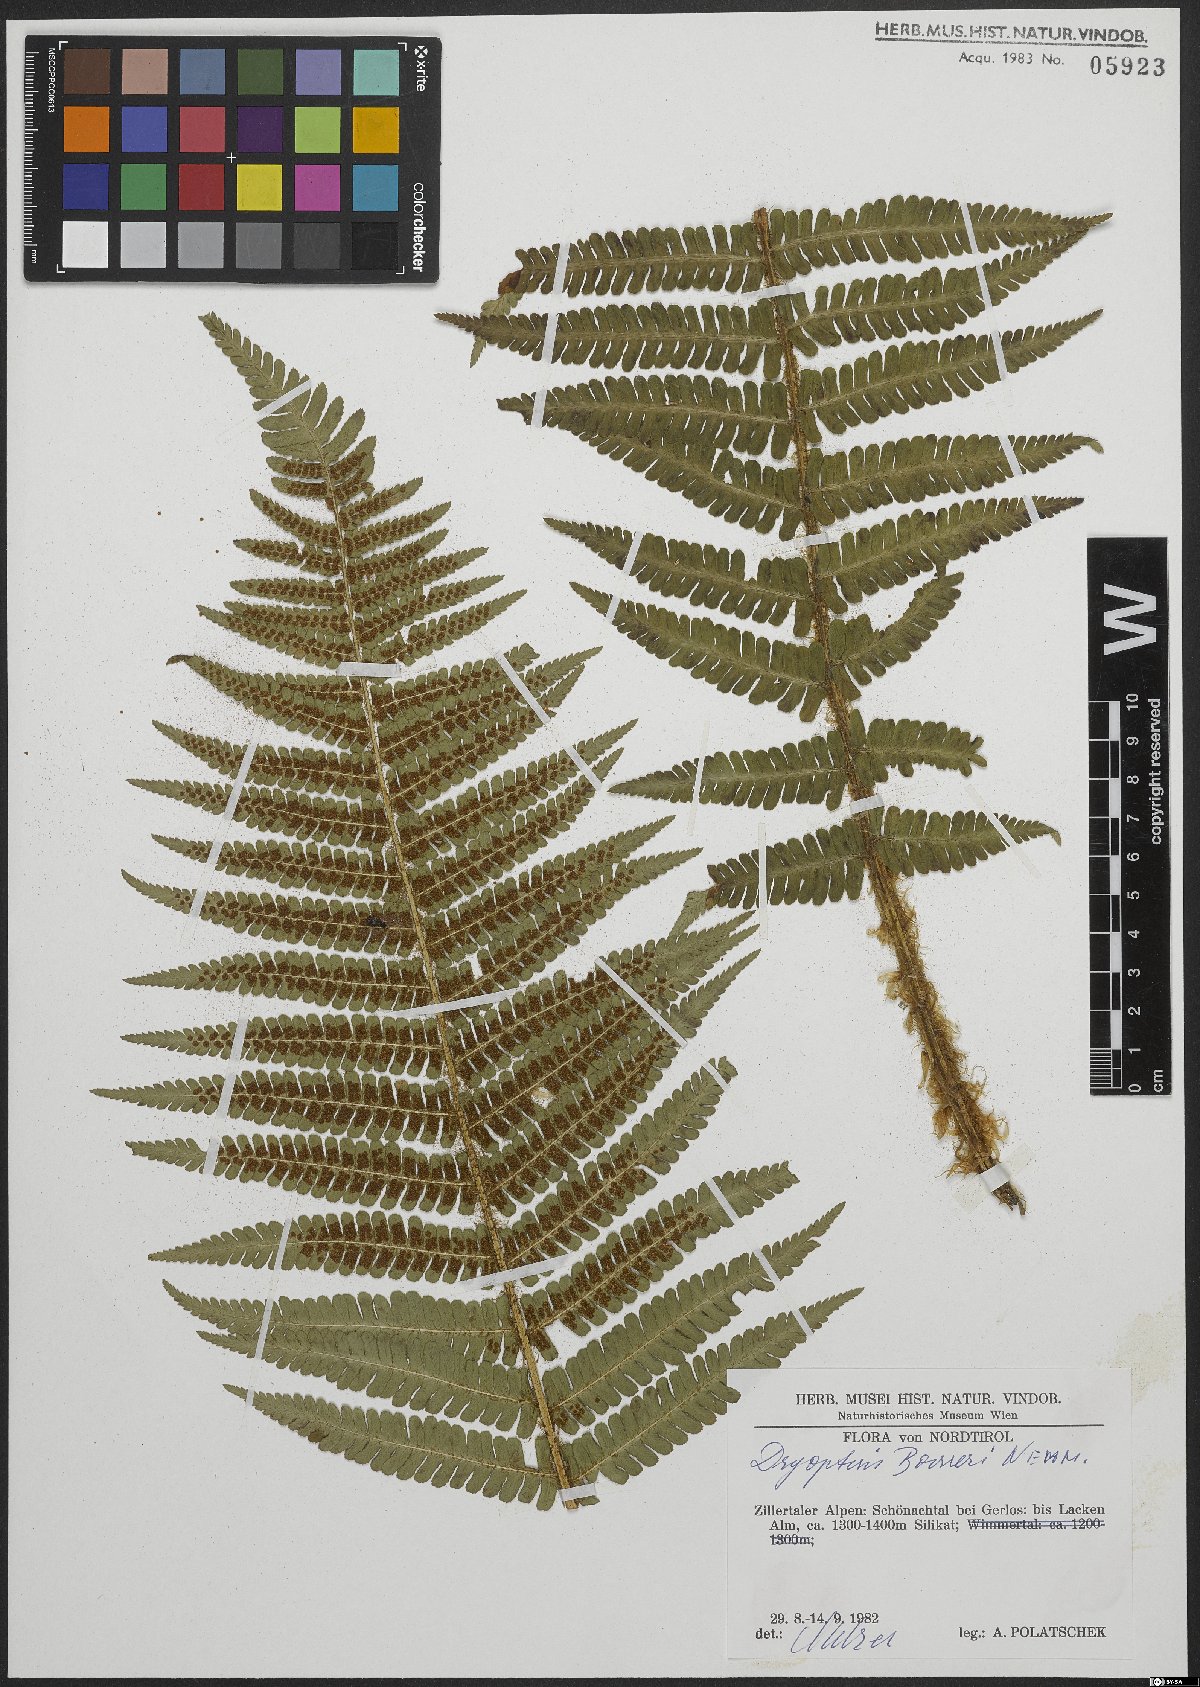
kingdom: Plantae
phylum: Tracheophyta
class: Polypodiopsida
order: Polypodiales
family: Dryopteridaceae
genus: Dryopteris
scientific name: Dryopteris borreri
